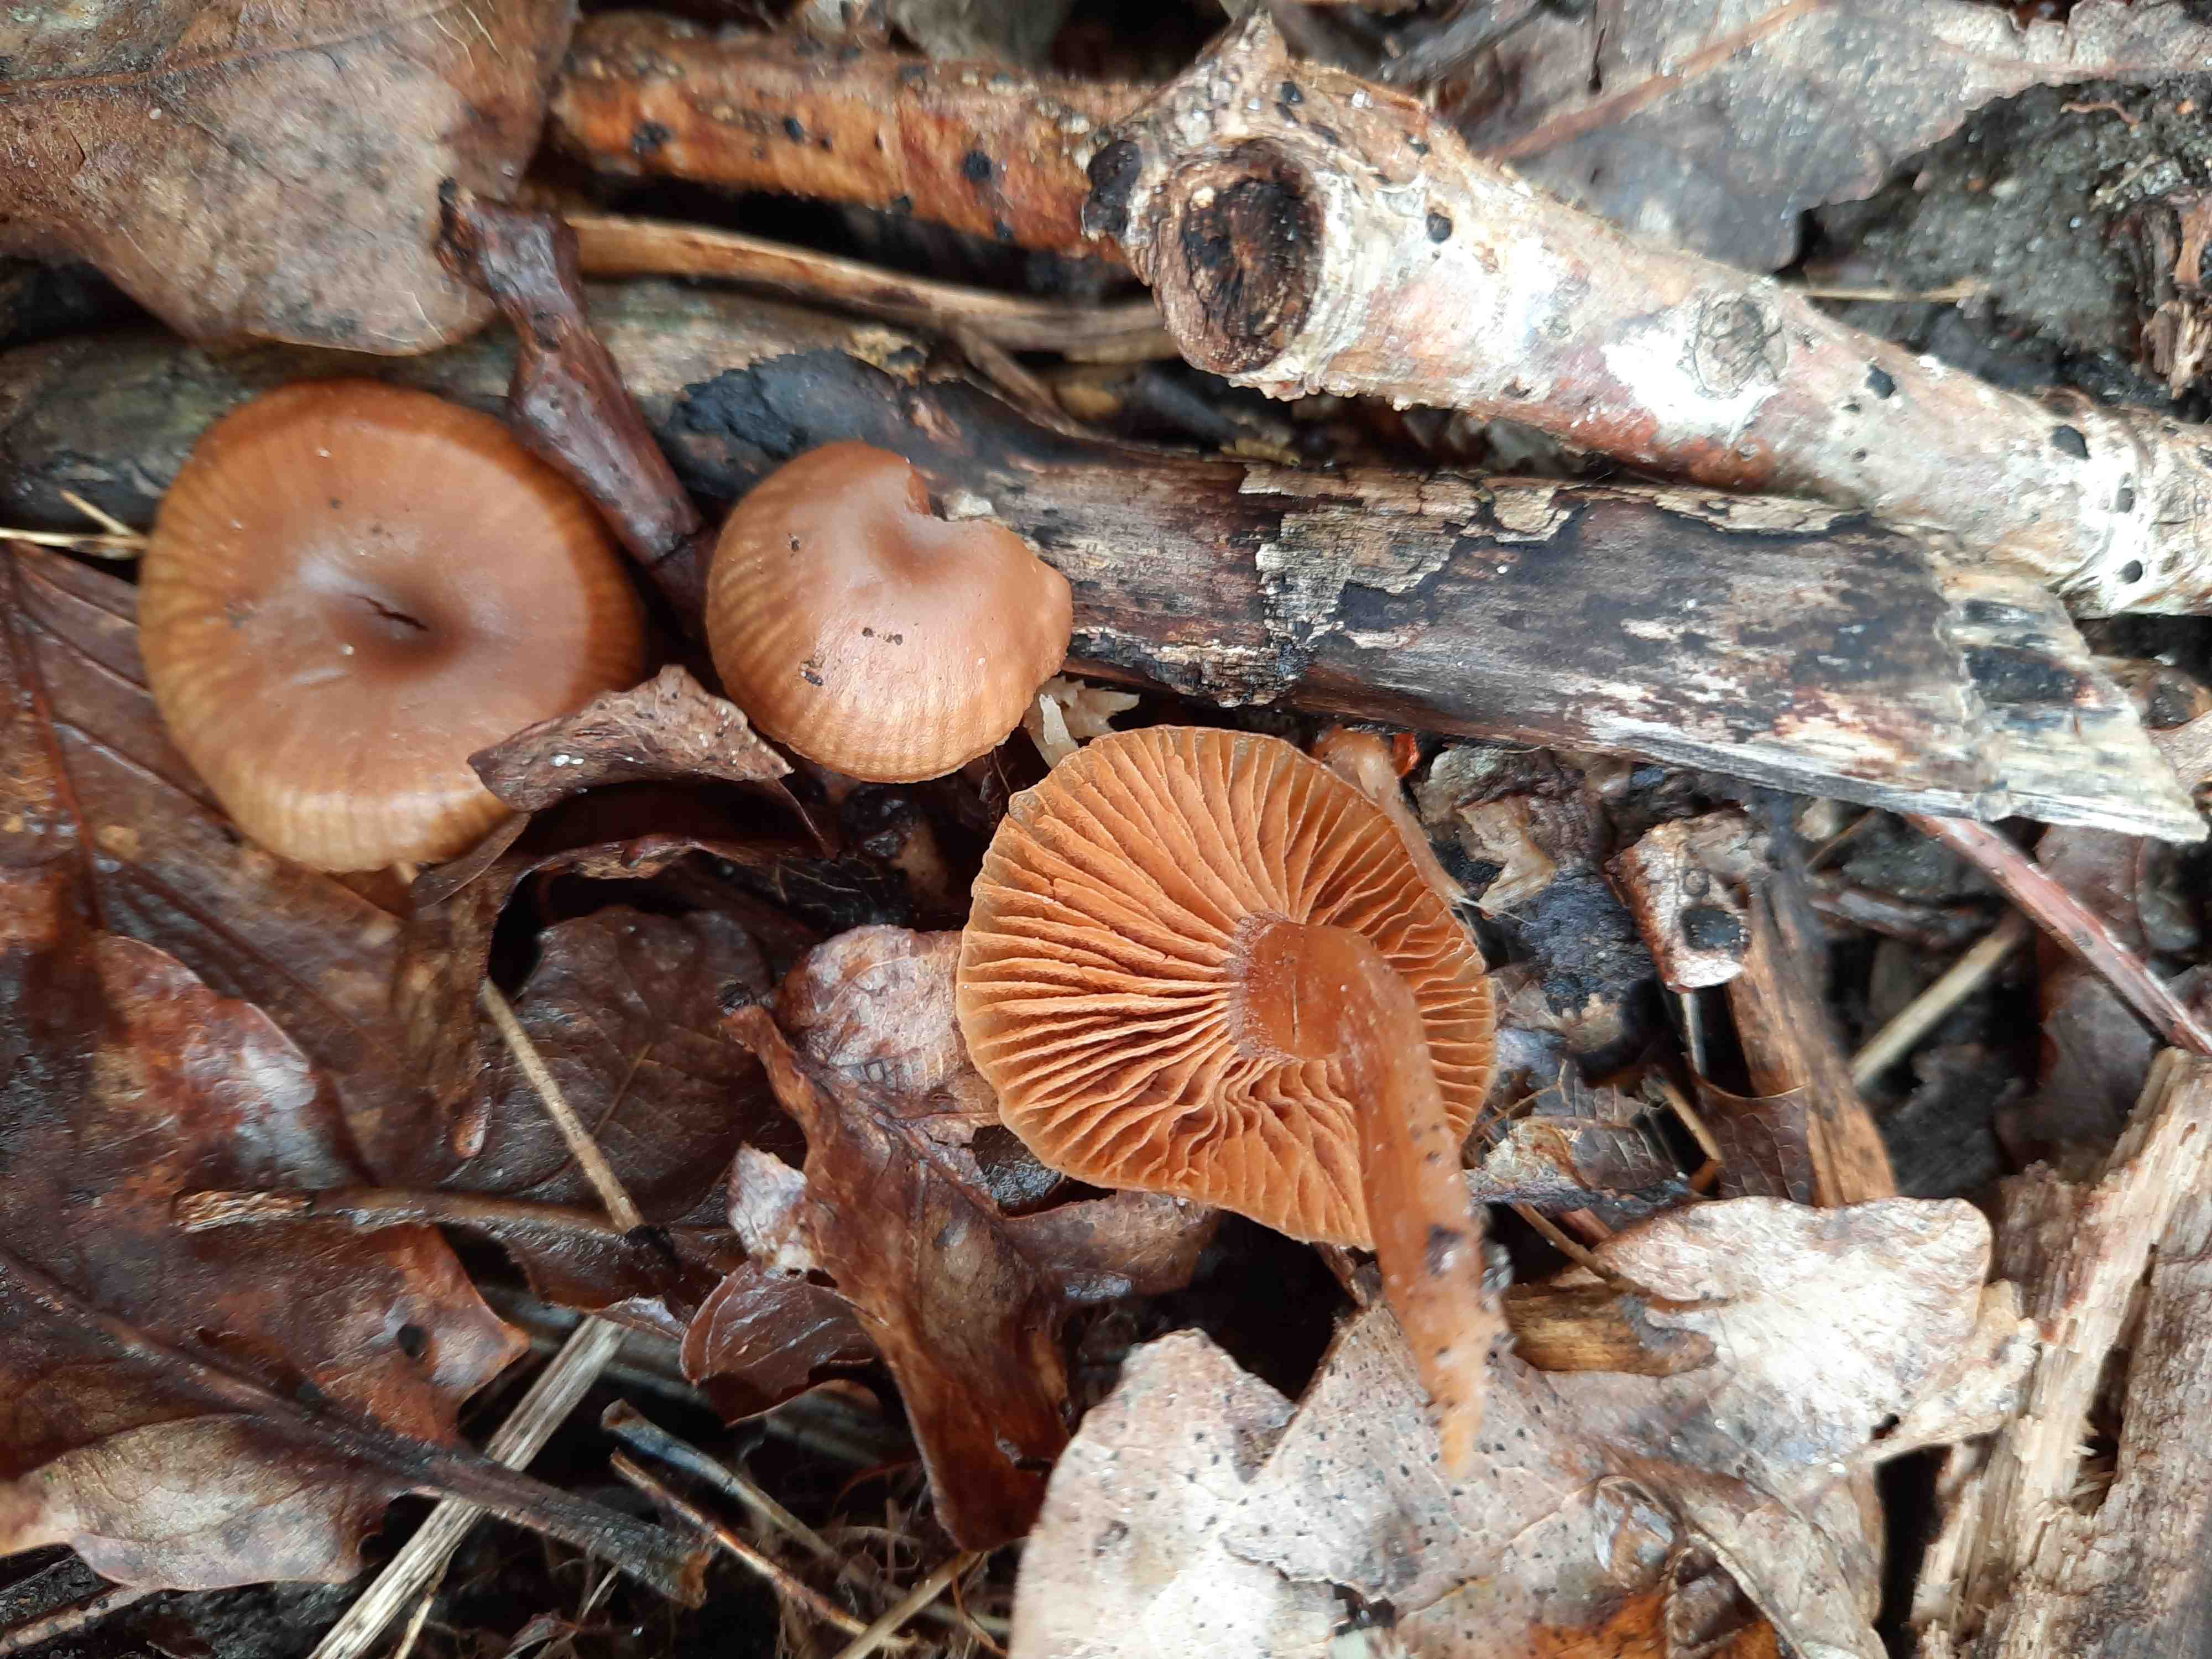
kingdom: Fungi
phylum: Basidiomycota
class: Agaricomycetes
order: Agaricales
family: Tubariaceae
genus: Tubaria
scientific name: Tubaria furfuracea
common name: kliddet fnughat
